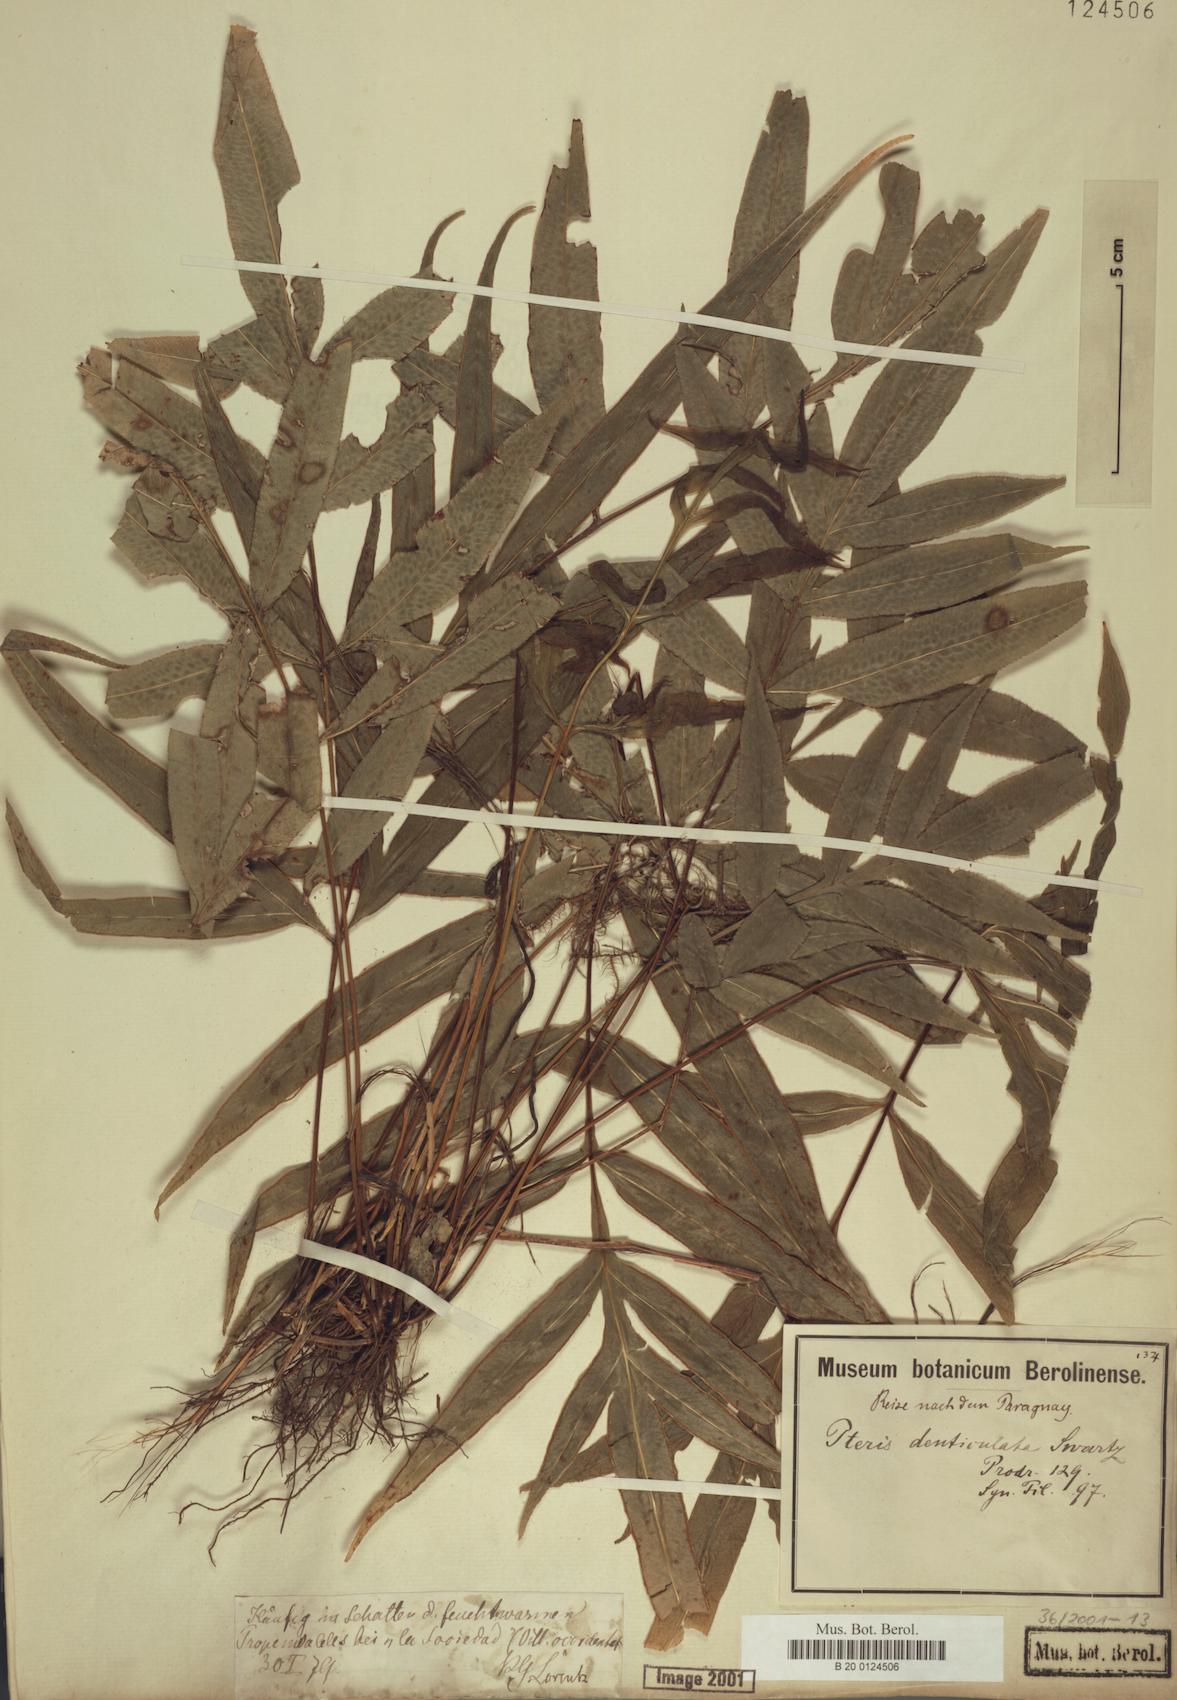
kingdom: Plantae
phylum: Tracheophyta
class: Polypodiopsida
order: Polypodiales
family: Pteridaceae
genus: Pteris
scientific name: Pteris denticulata
